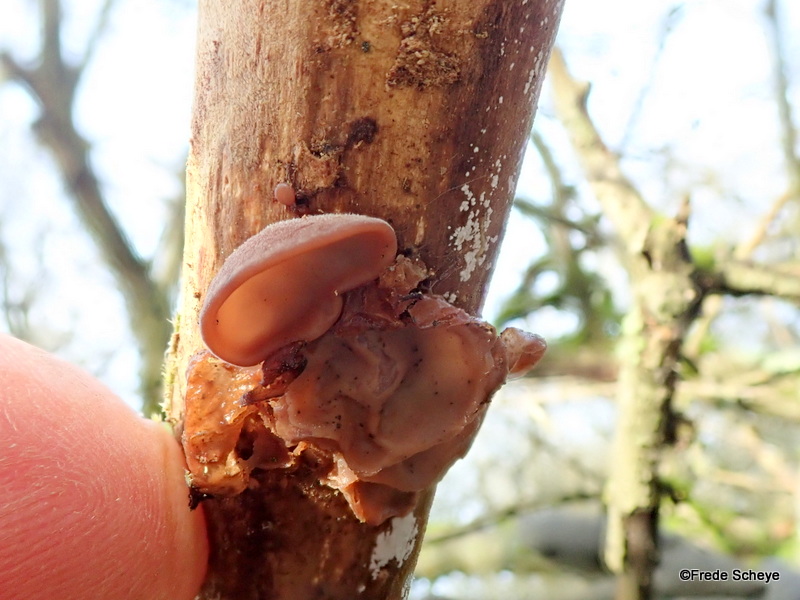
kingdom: Fungi
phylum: Basidiomycota
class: Agaricomycetes
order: Auriculariales
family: Auriculariaceae
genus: Auricularia
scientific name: Auricularia auricula-judae
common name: almindelig judasøre
